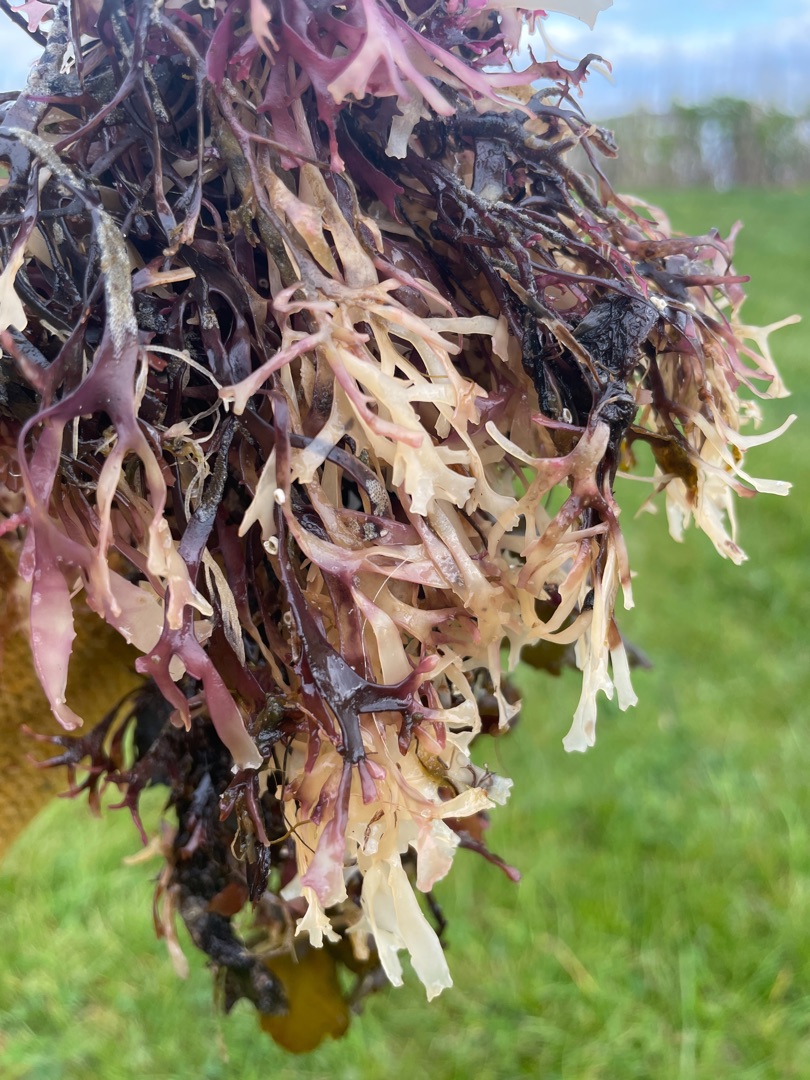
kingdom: Plantae
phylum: Rhodophyta
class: Florideophyceae
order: Gigartinales
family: Gigartinaceae
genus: Chondrus
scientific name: Chondrus crispus
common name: Carrageentang
